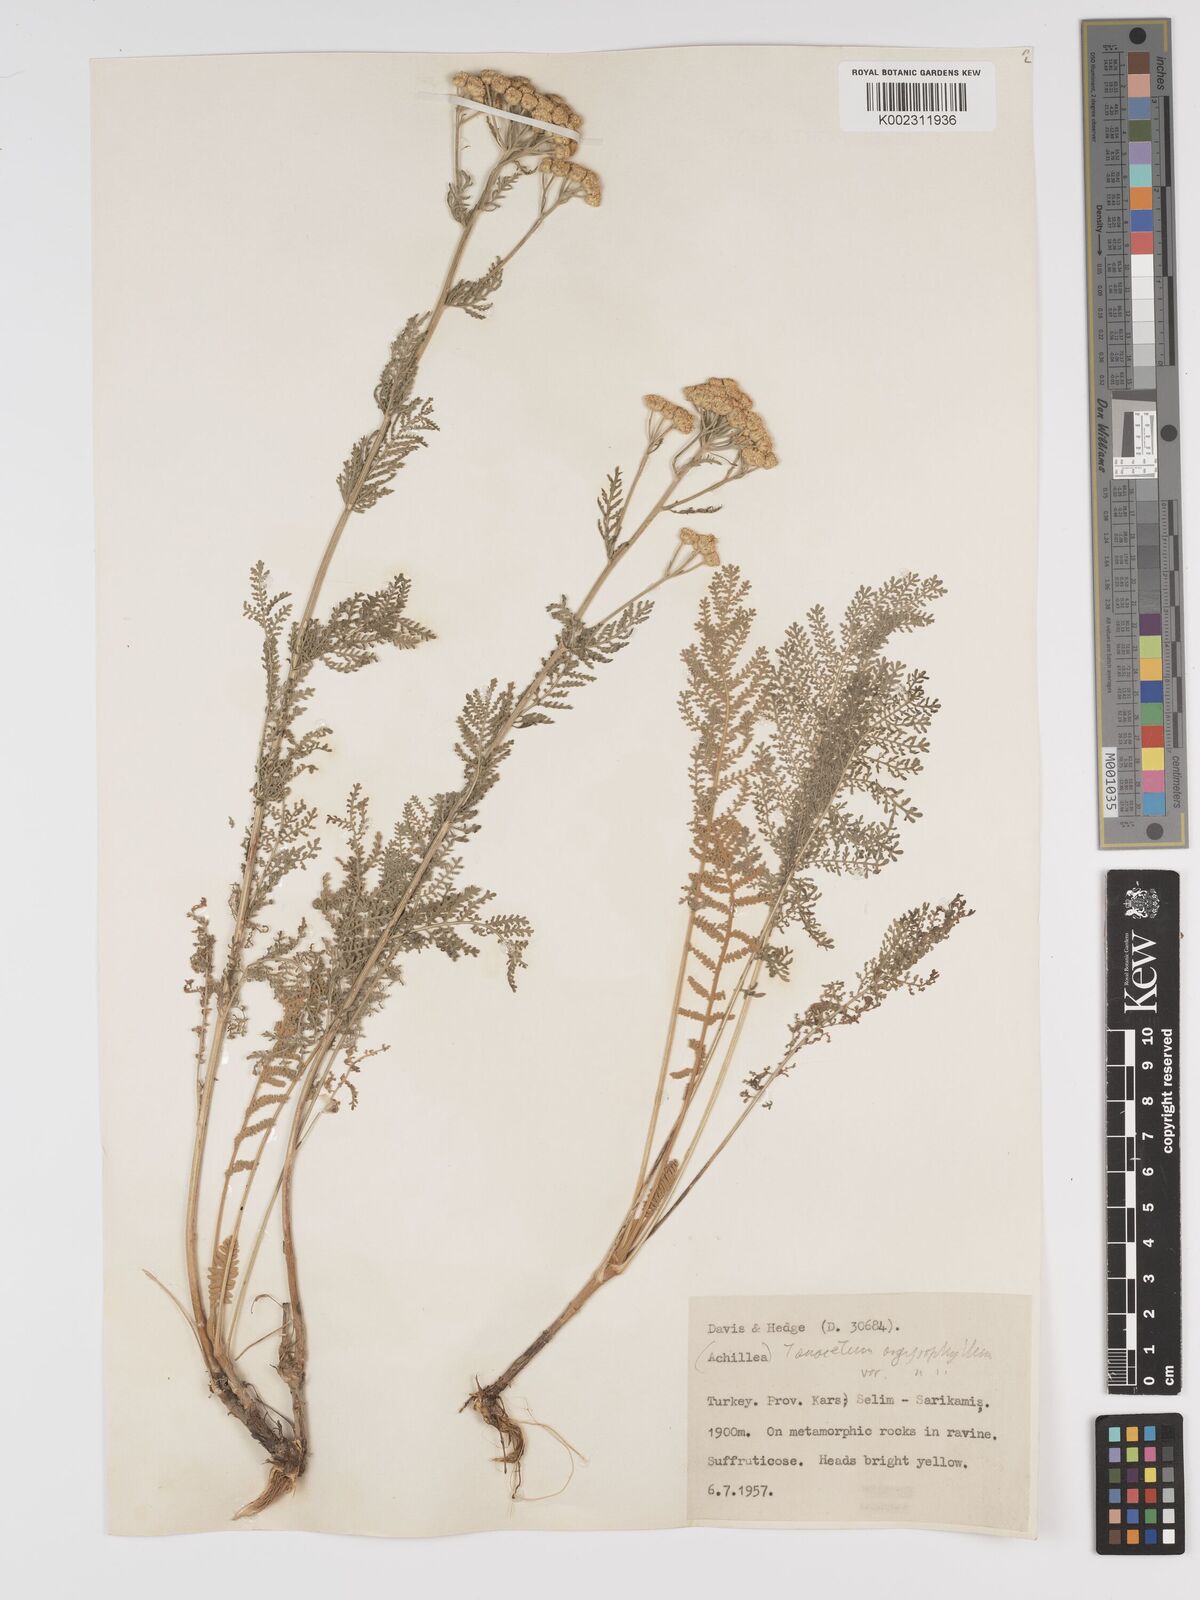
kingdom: Plantae
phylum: Tracheophyta
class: Magnoliopsida
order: Asterales
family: Asteraceae
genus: Tanacetum
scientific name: Tanacetum polycephalum
